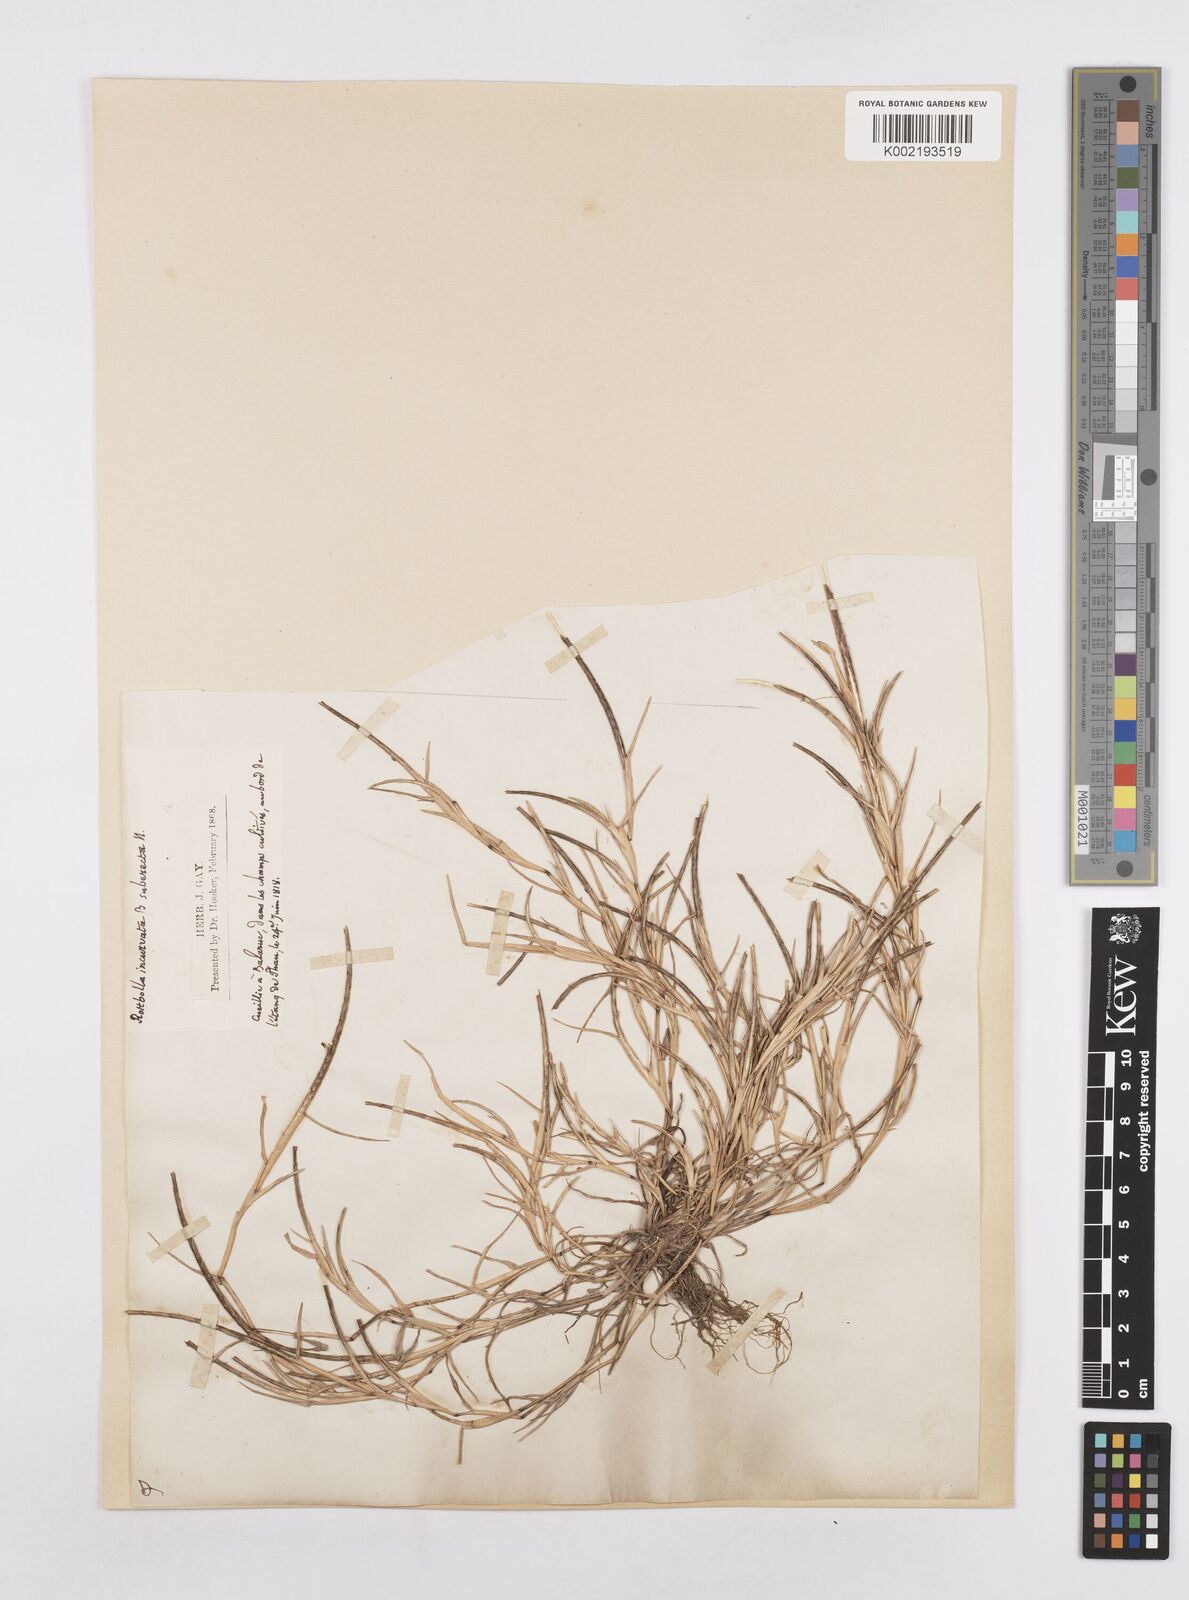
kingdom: Plantae
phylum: Tracheophyta
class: Liliopsida
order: Poales
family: Poaceae
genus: Parapholis
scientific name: Parapholis incurva
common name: Curved sicklegrass
